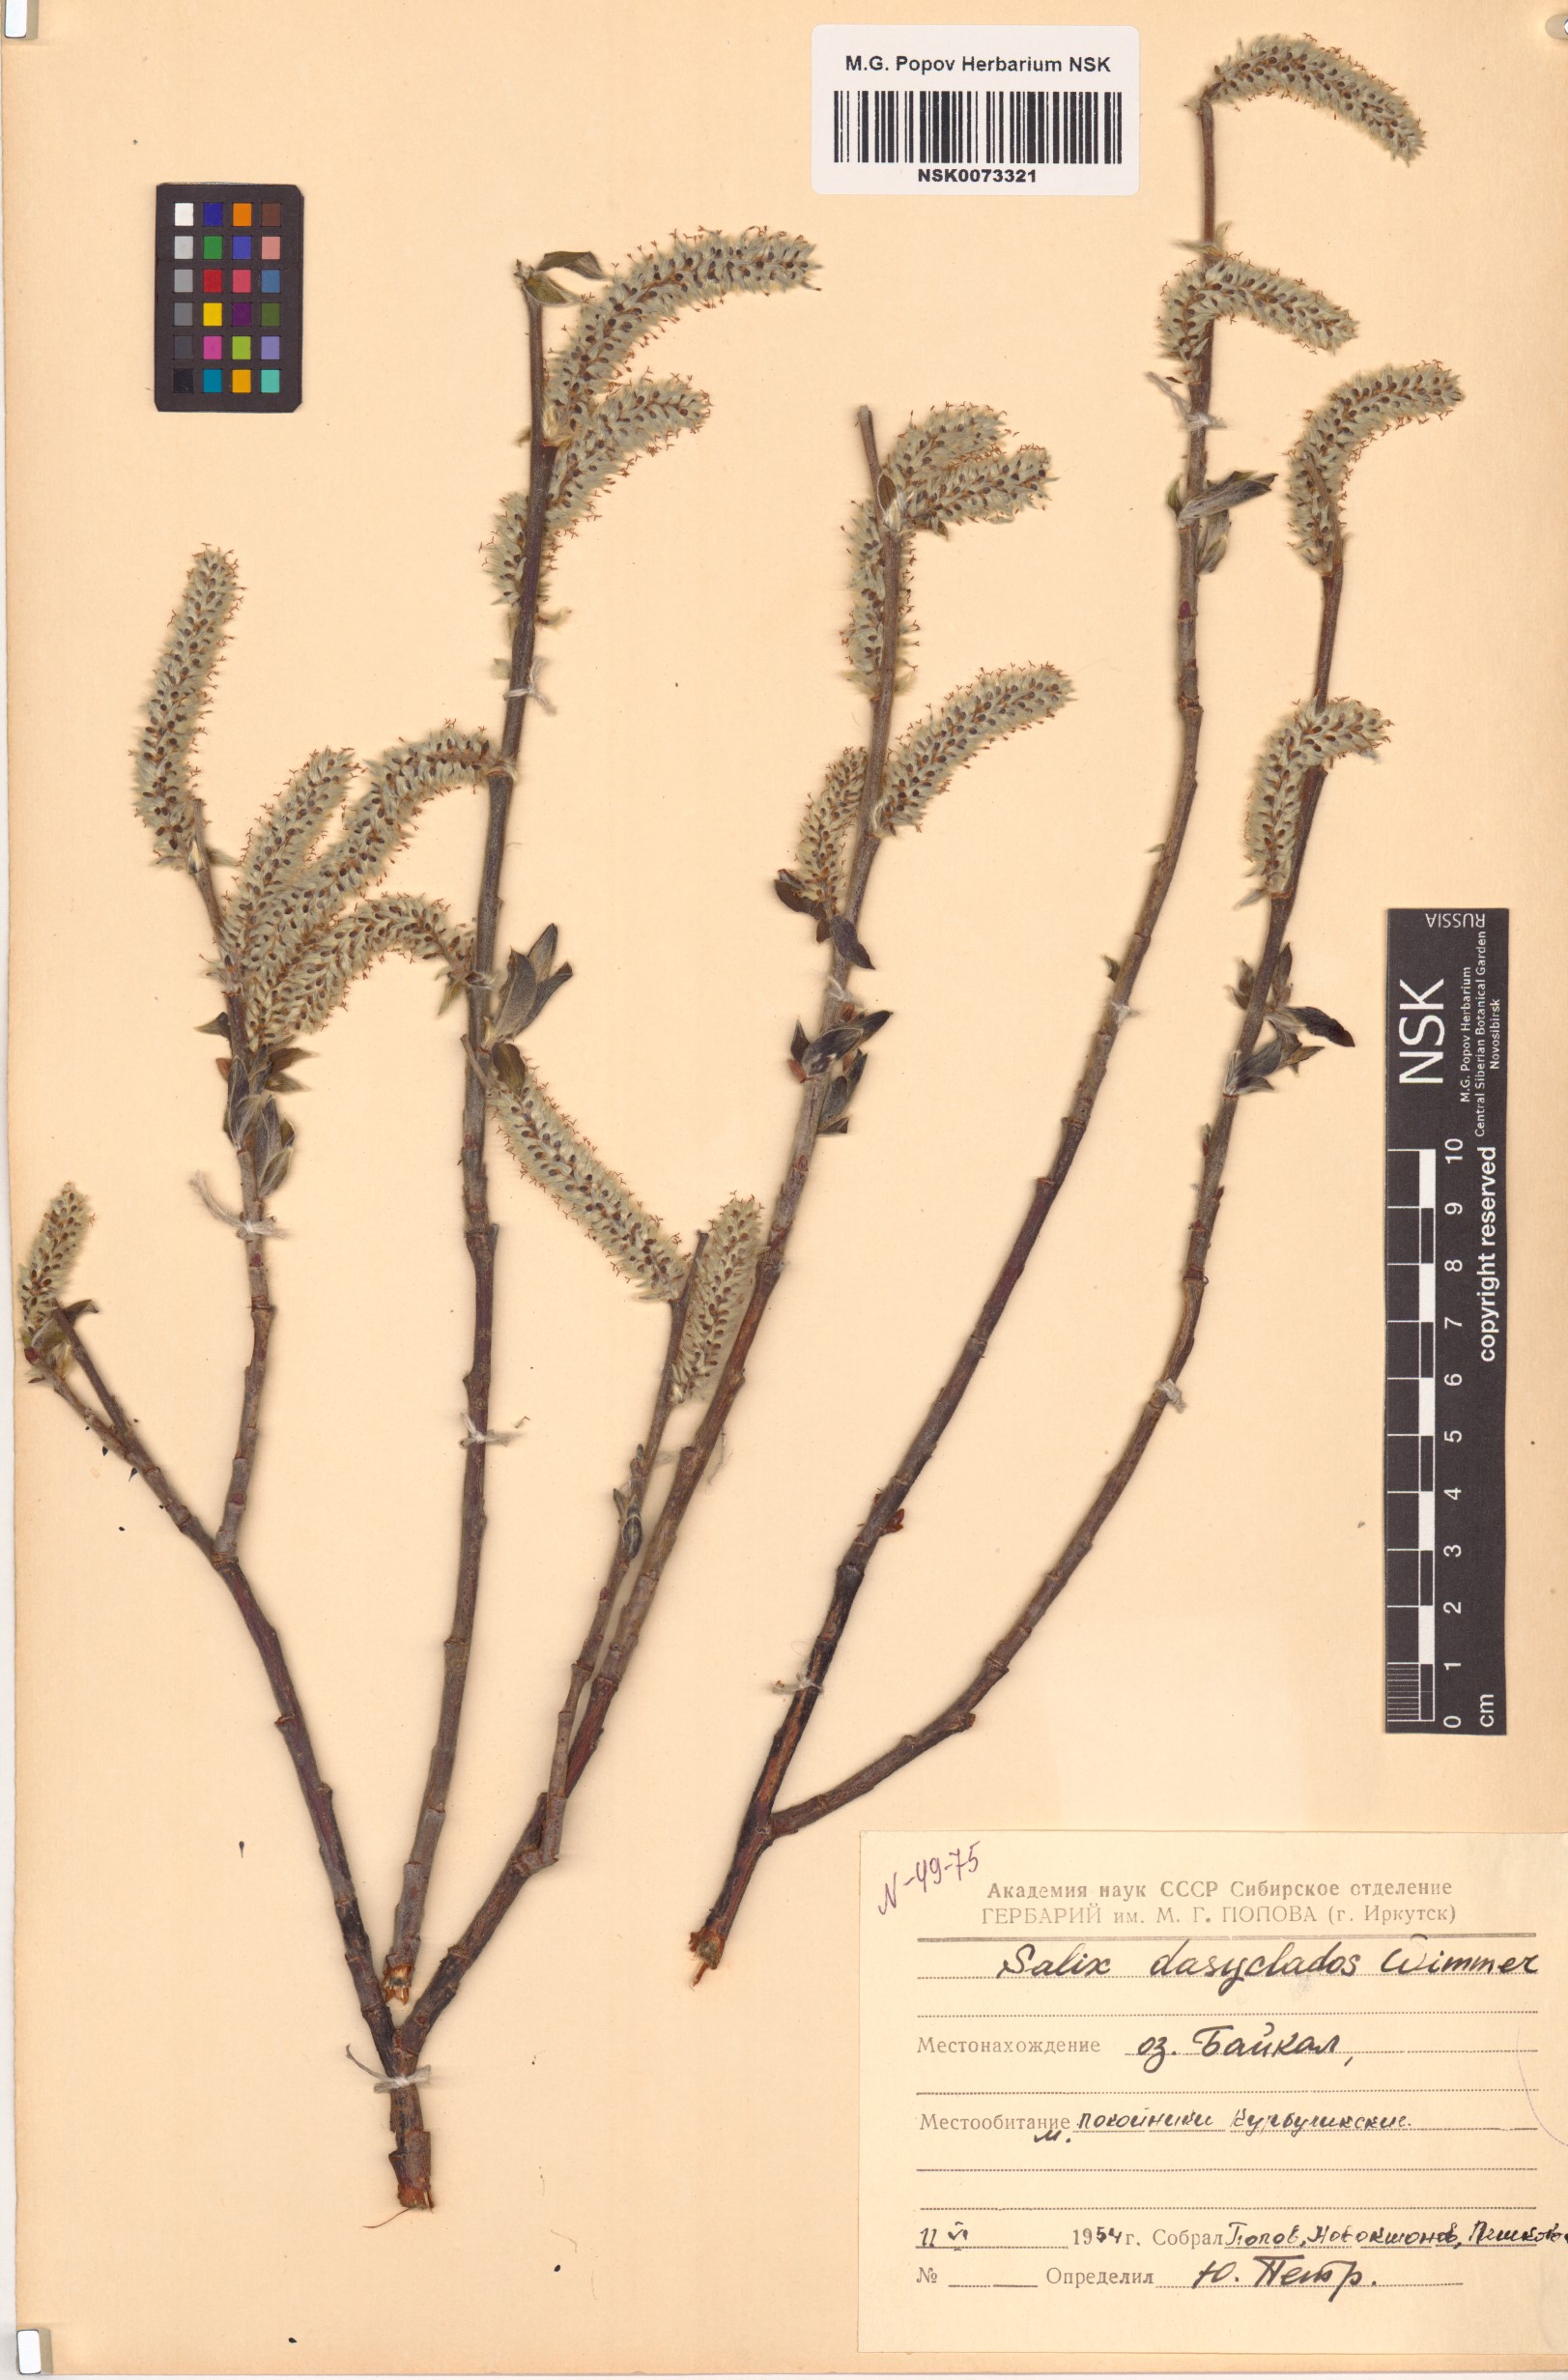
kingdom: Plantae
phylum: Tracheophyta
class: Magnoliopsida
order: Malpighiales
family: Salicaceae
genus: Salix
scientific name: Salix gmelinii
